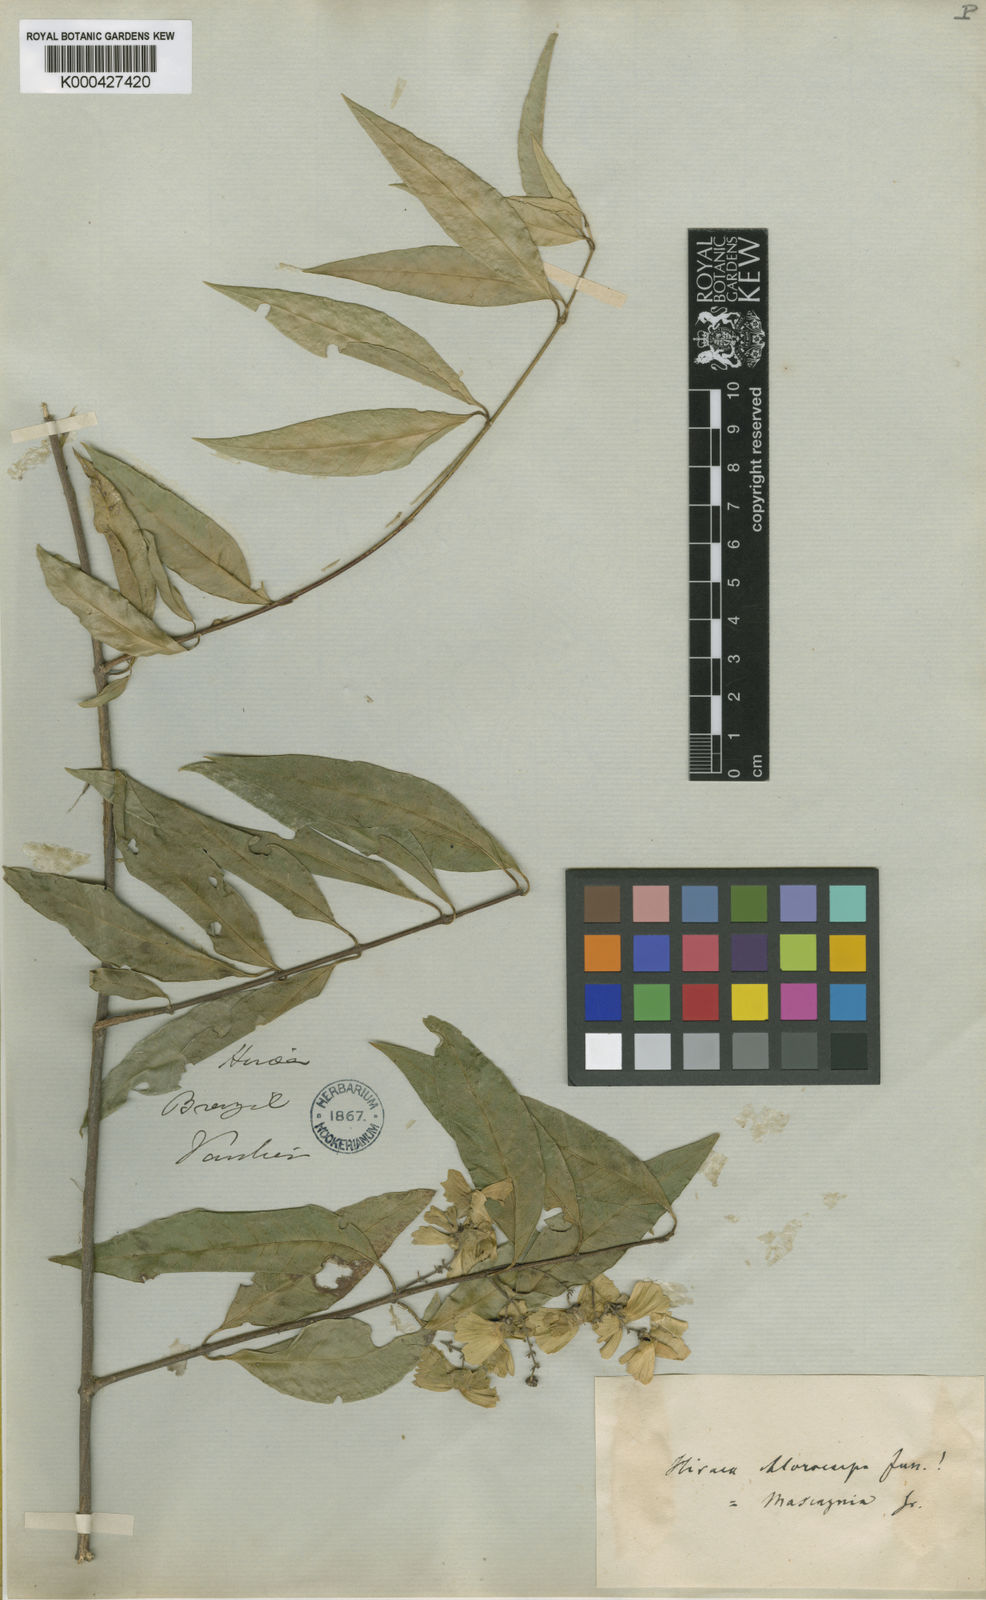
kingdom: Plantae
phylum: Tracheophyta
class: Magnoliopsida
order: Malpighiales
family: Malpighiaceae
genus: Carolus
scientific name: Carolus chlorocarpus
